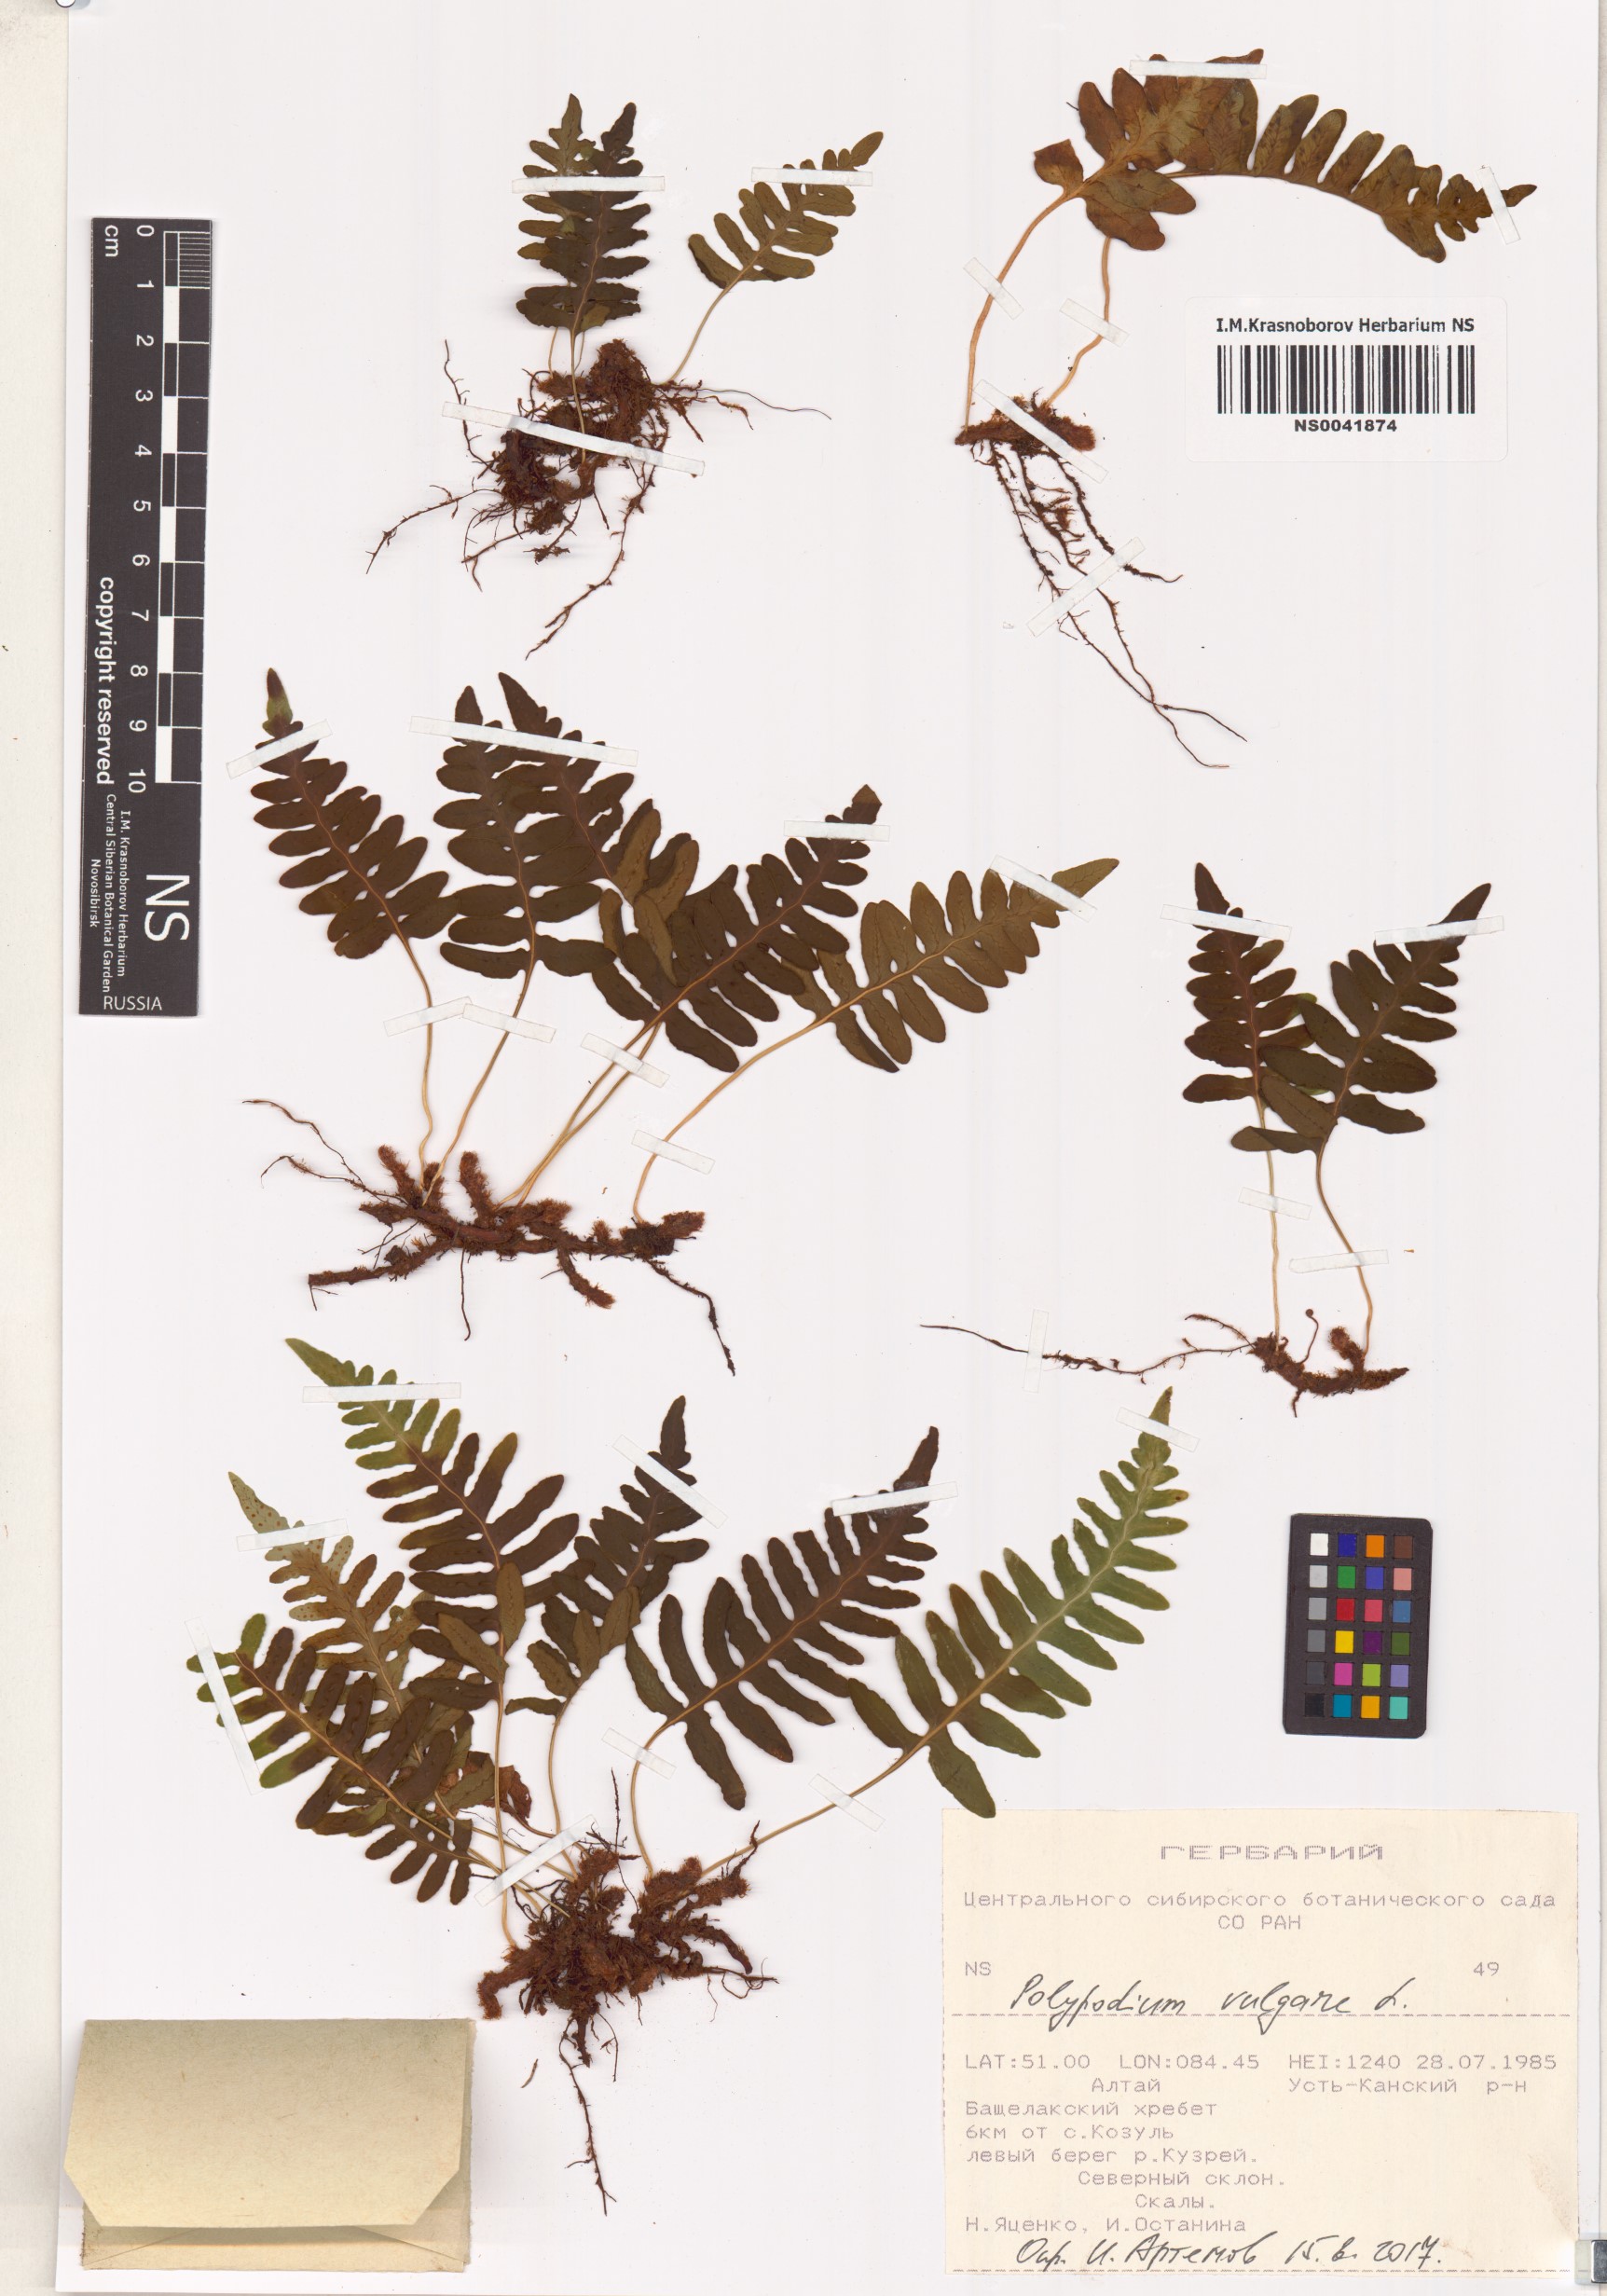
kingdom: Plantae
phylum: Tracheophyta
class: Polypodiopsida
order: Polypodiales
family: Polypodiaceae
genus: Polypodium
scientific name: Polypodium vulgare
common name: Common polypody
